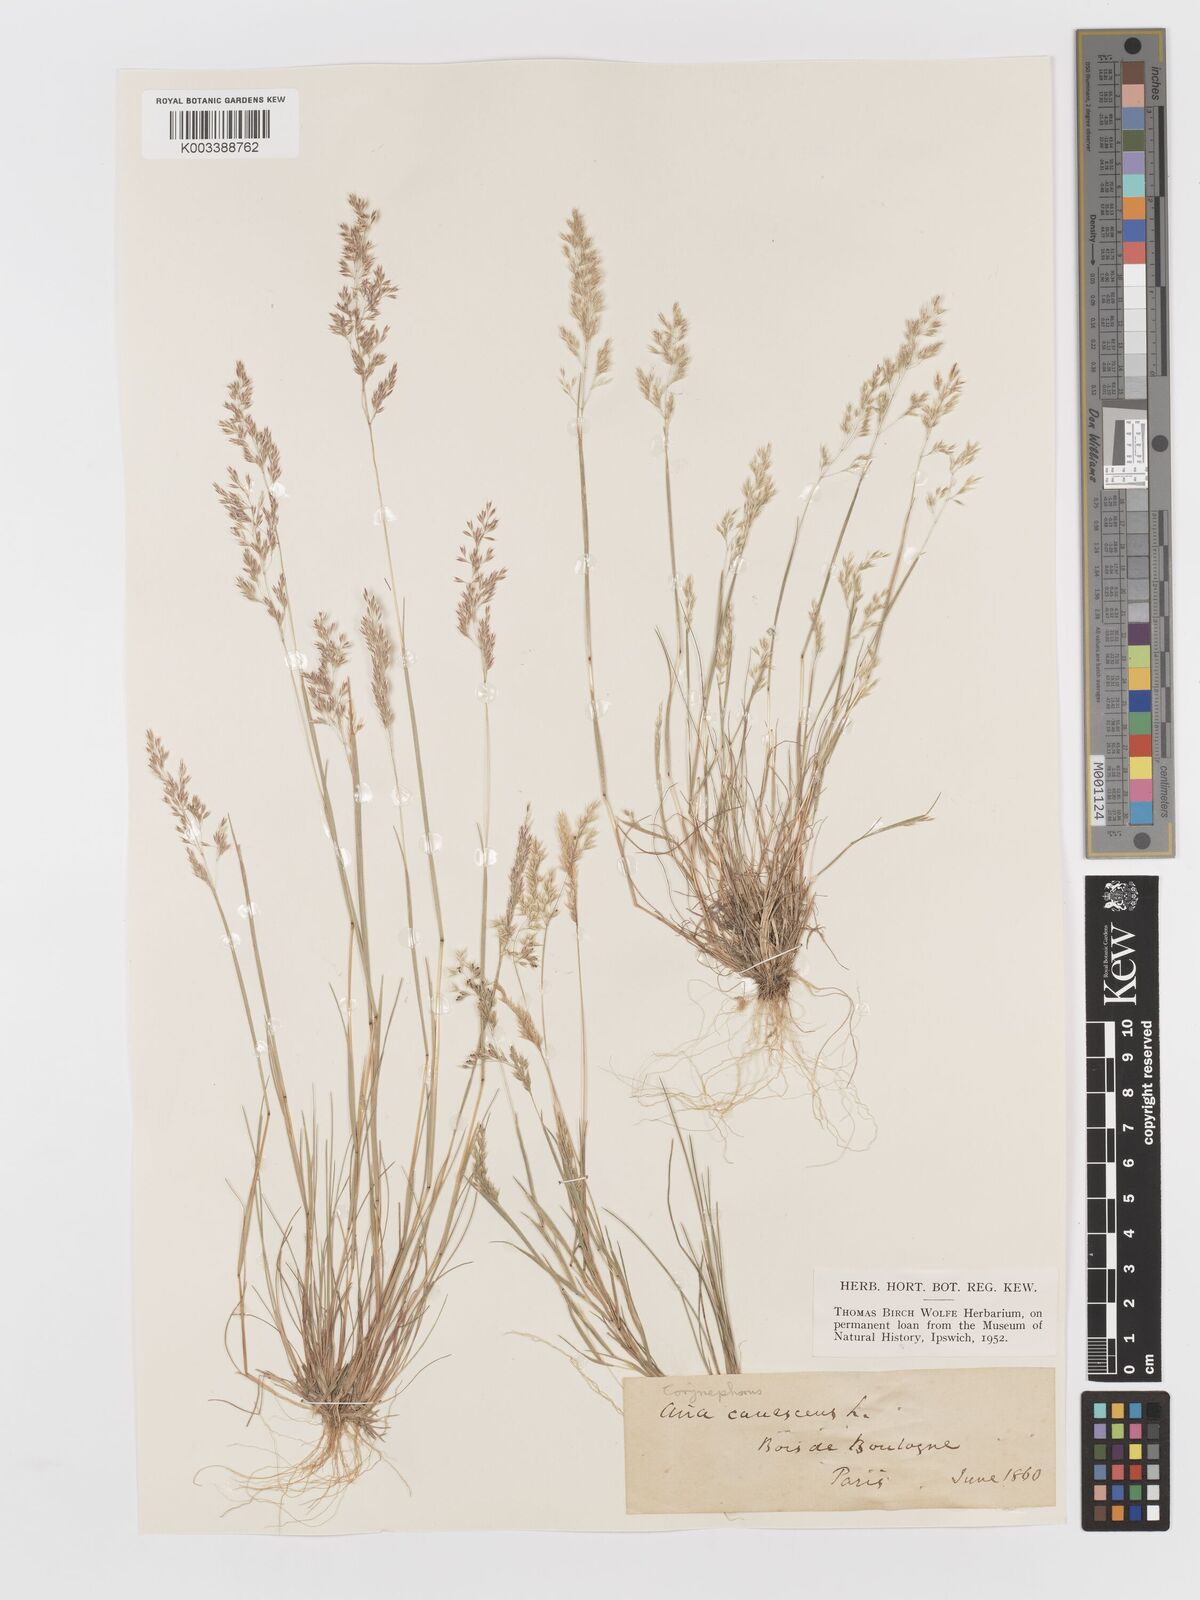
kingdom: Plantae
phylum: Tracheophyta
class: Liliopsida
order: Poales
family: Poaceae
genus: Corynephorus
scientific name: Corynephorus canescens
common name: Grey hair-grass
